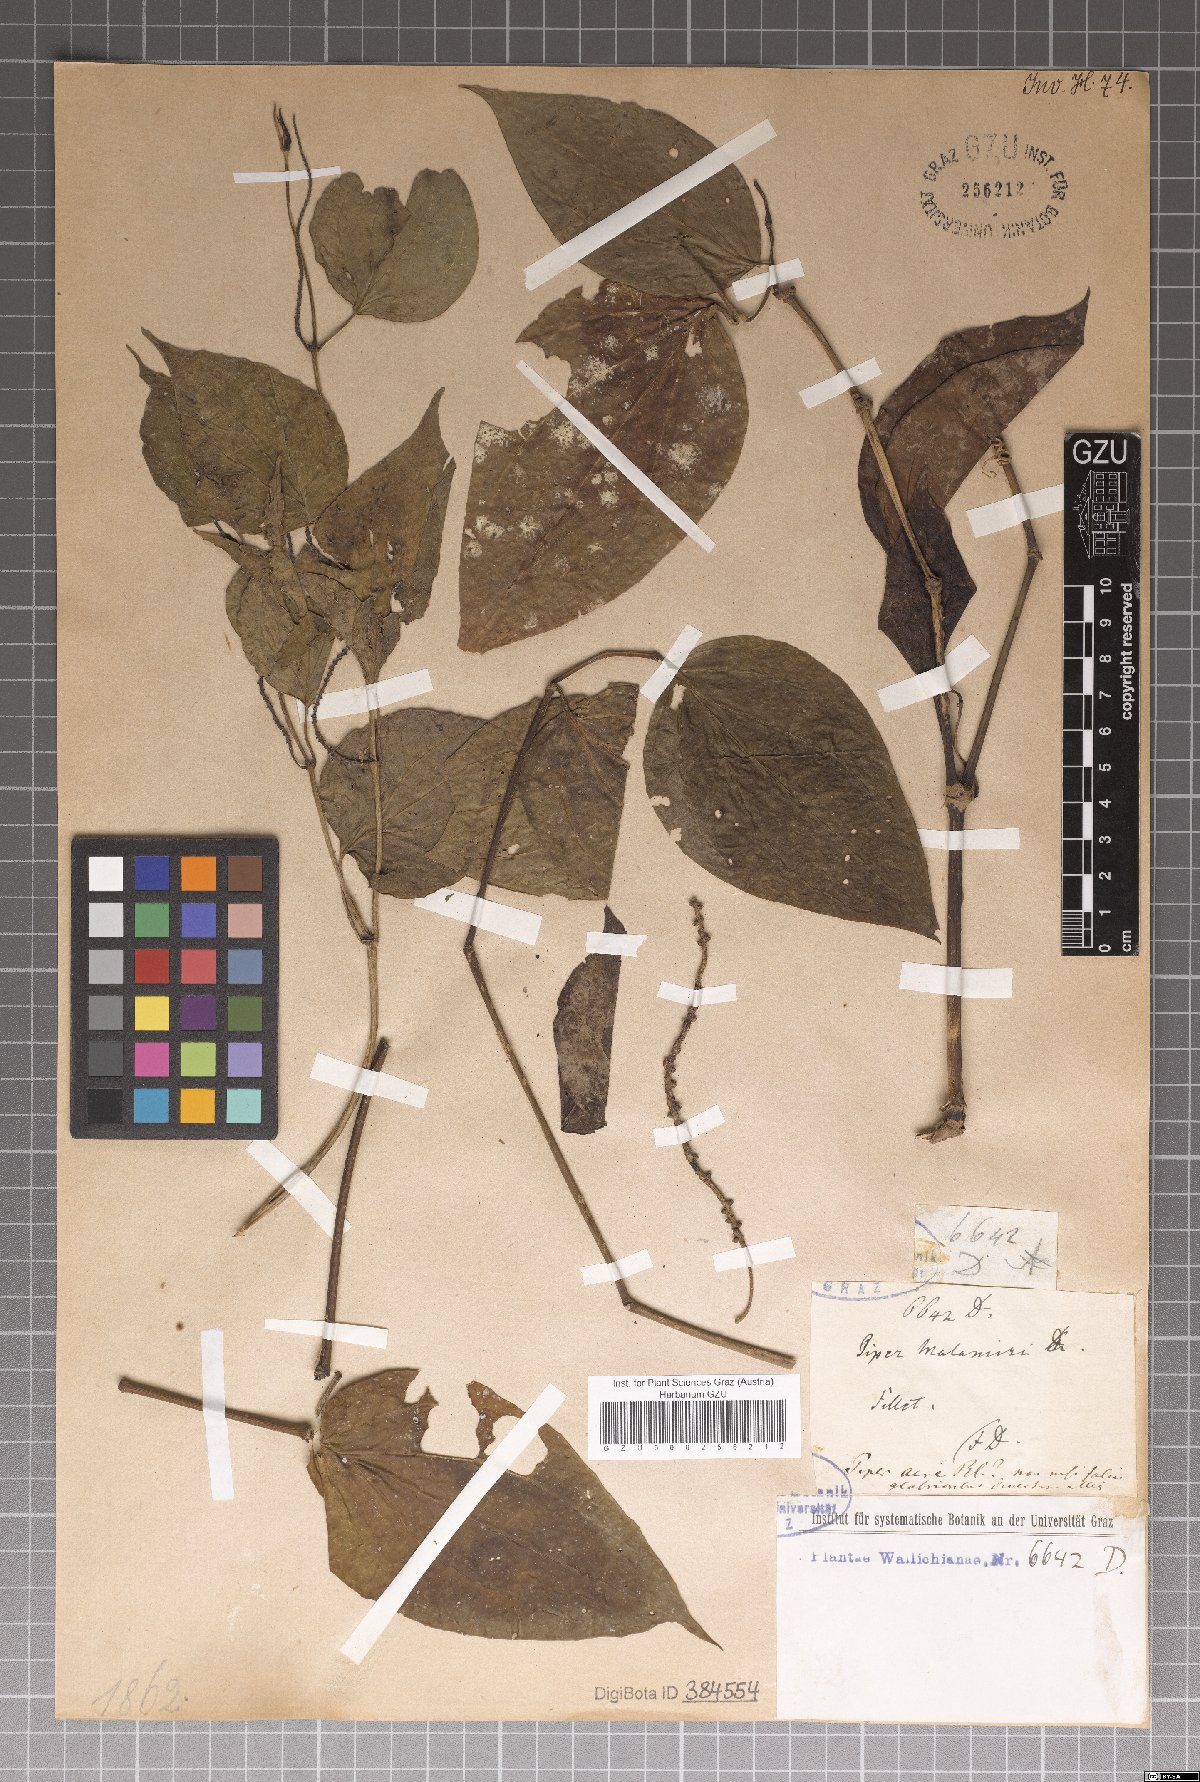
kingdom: Plantae
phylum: Tracheophyta
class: Magnoliopsida
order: Piperales
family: Piperaceae
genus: Piper
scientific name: Piper betle
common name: Betel pepper
